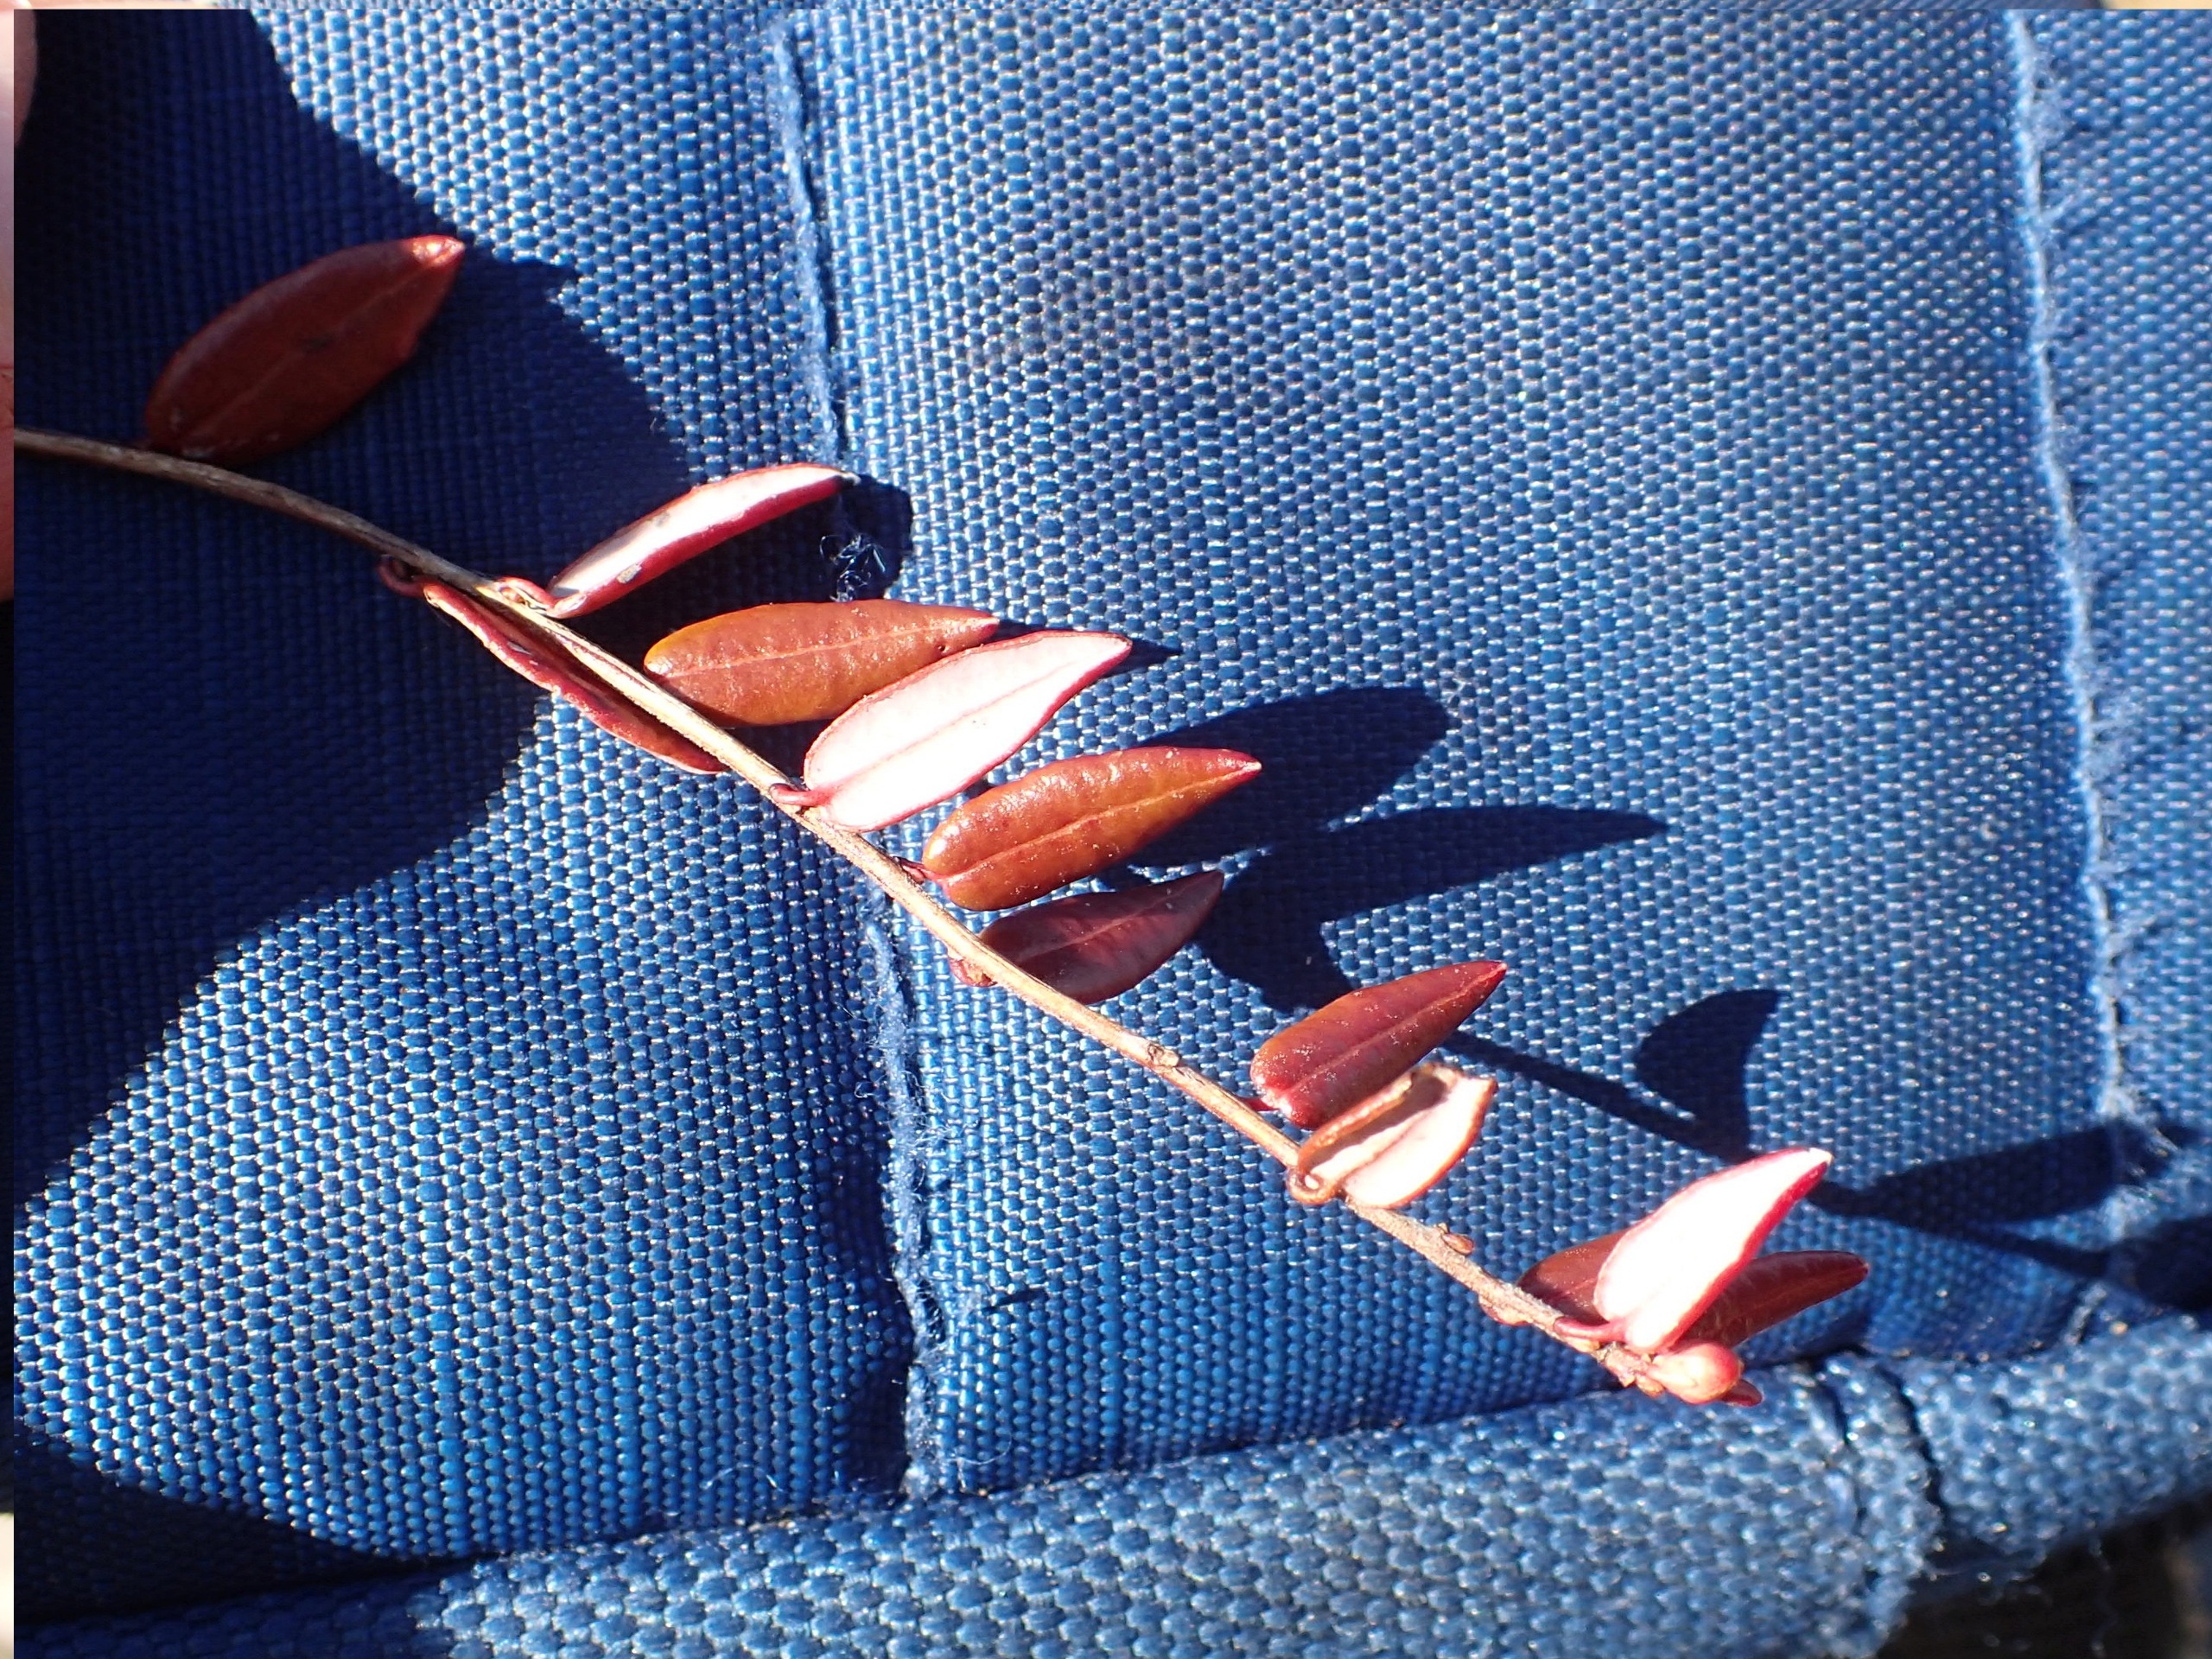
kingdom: Plantae
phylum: Tracheophyta
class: Magnoliopsida
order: Ericales
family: Ericaceae
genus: Vaccinium
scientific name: Vaccinium oxycoccos
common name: Tranebær
